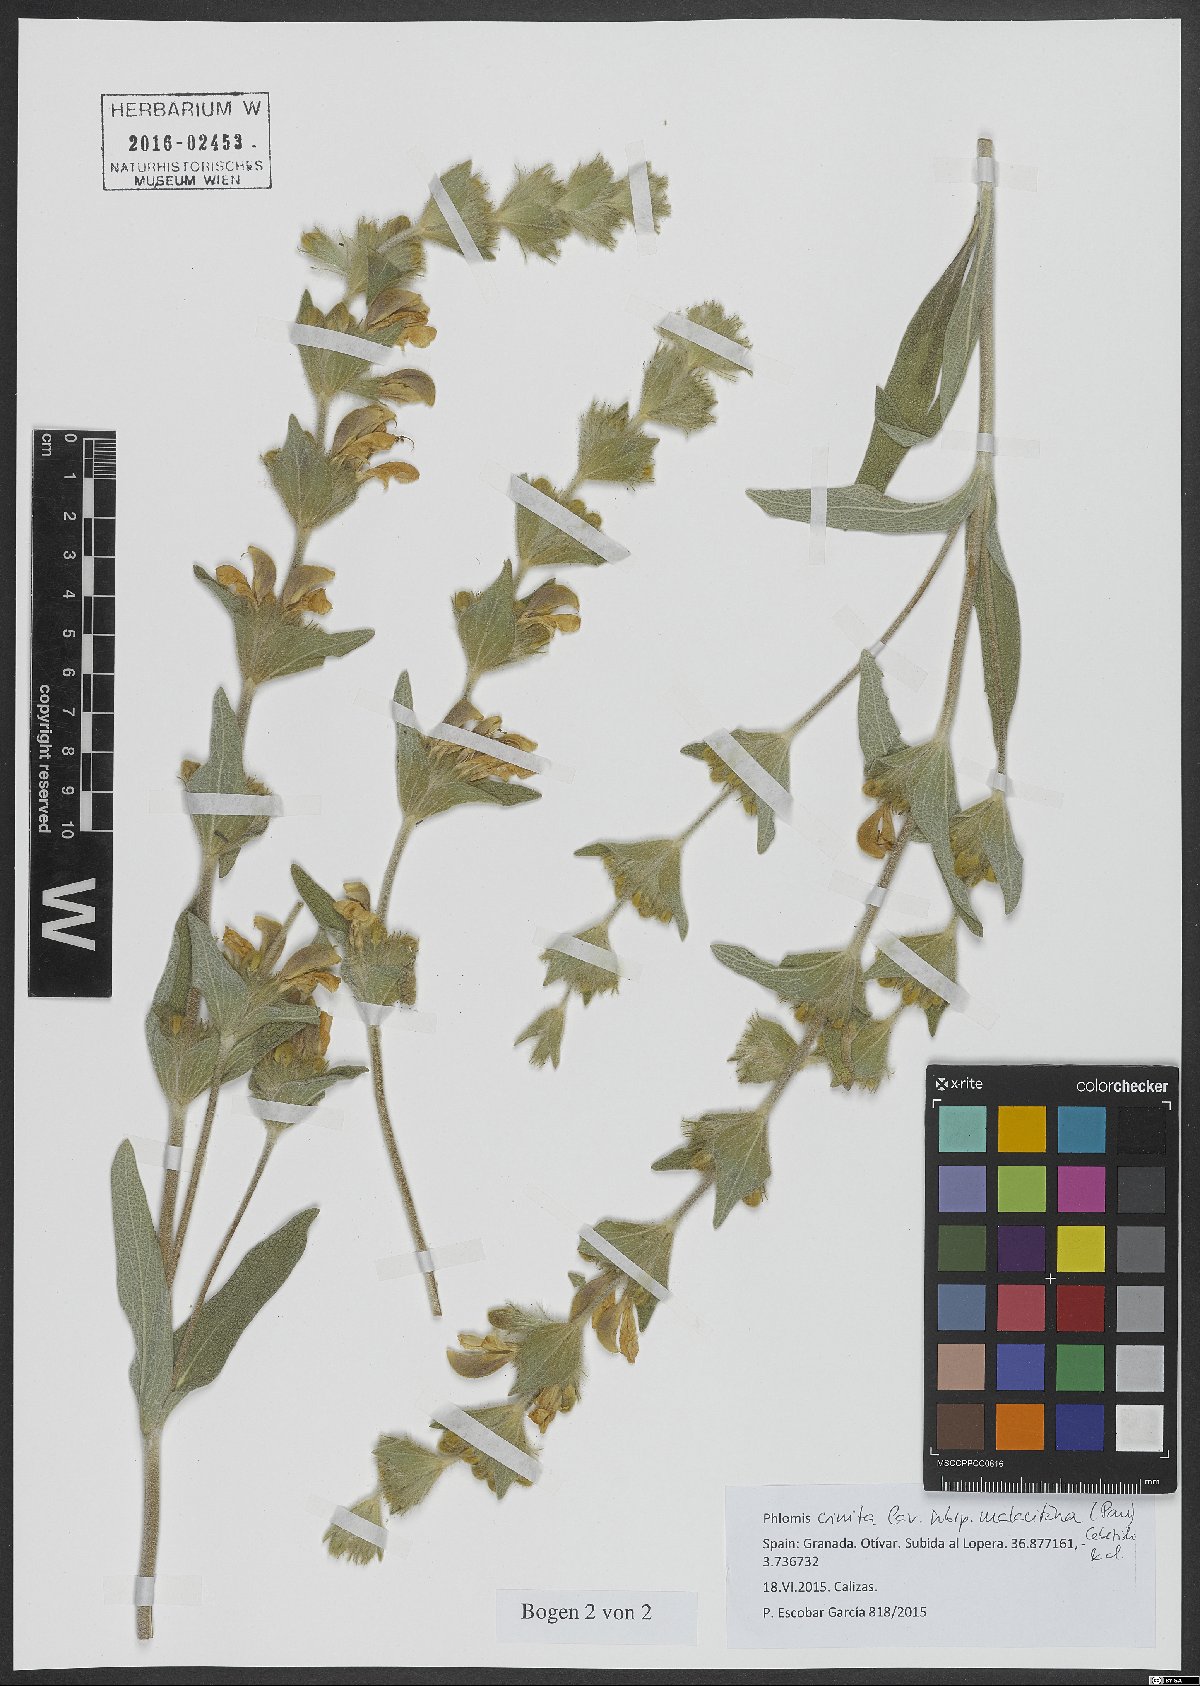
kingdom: Plantae
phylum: Tracheophyta
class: Magnoliopsida
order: Lamiales
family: Lamiaceae
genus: Phlomis
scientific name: Phlomis crinita
